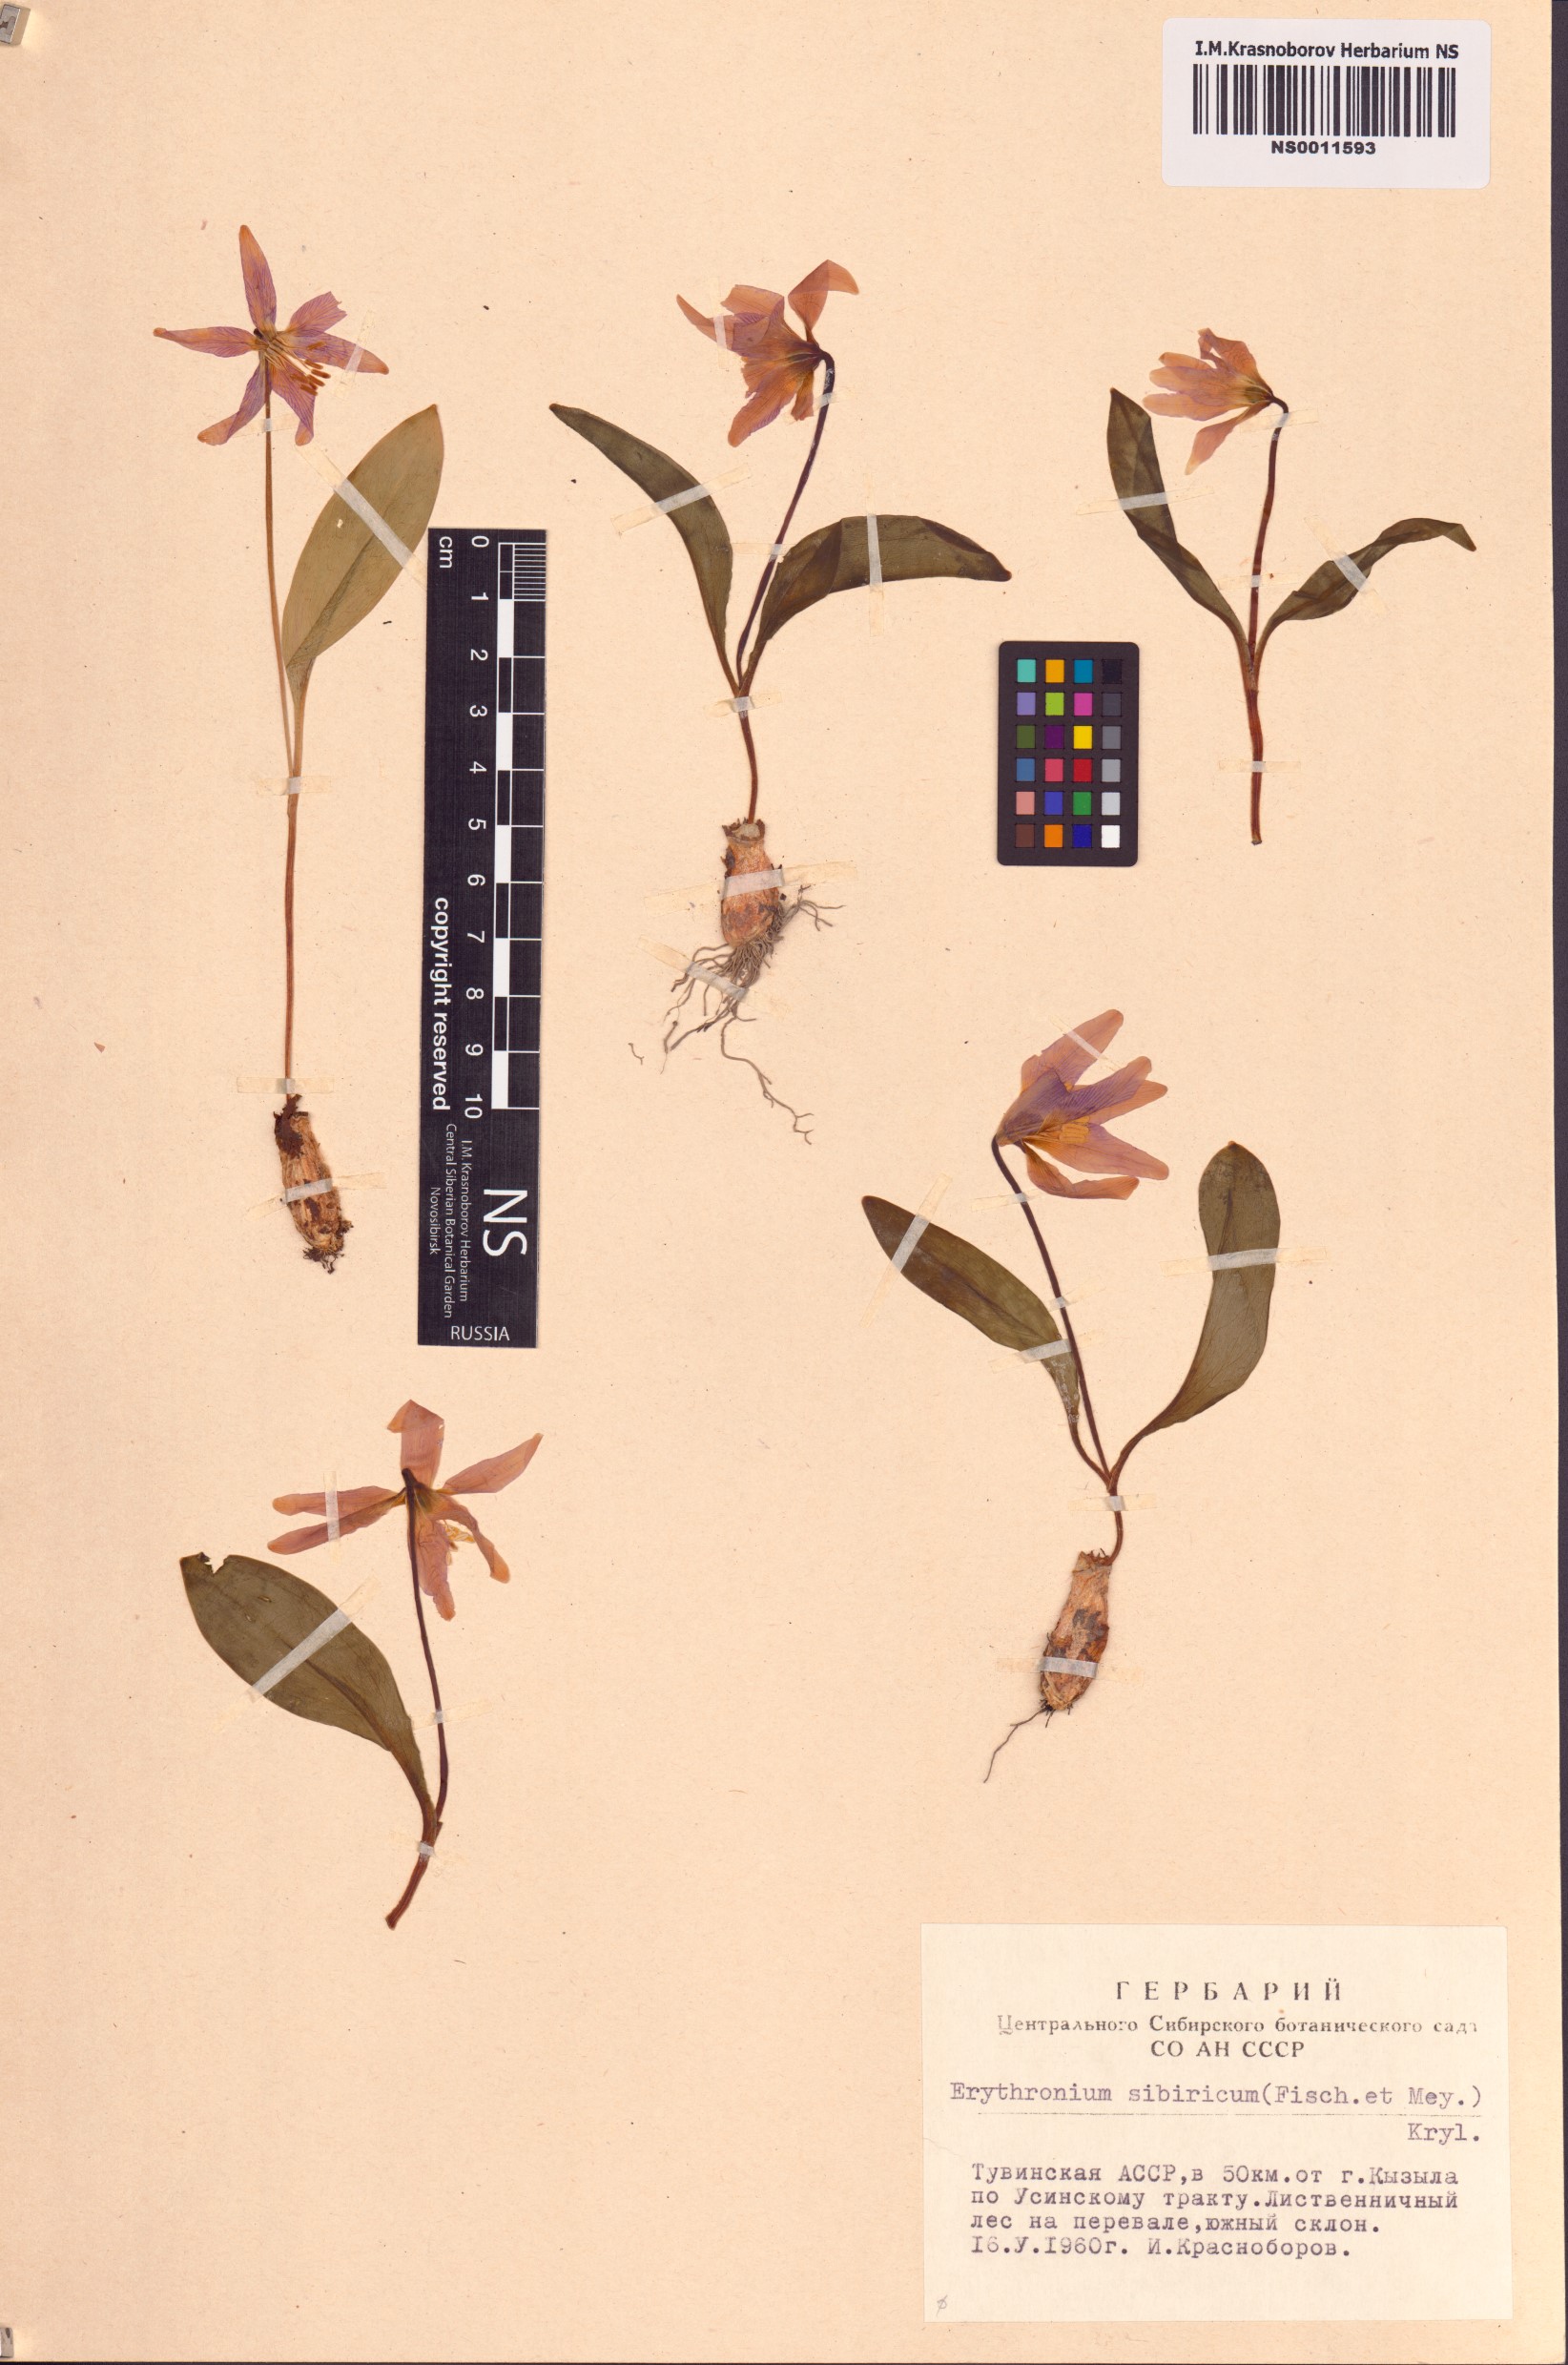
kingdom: Plantae
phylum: Tracheophyta
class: Liliopsida
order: Liliales
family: Liliaceae
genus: Erythronium
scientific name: Erythronium sibiricum
